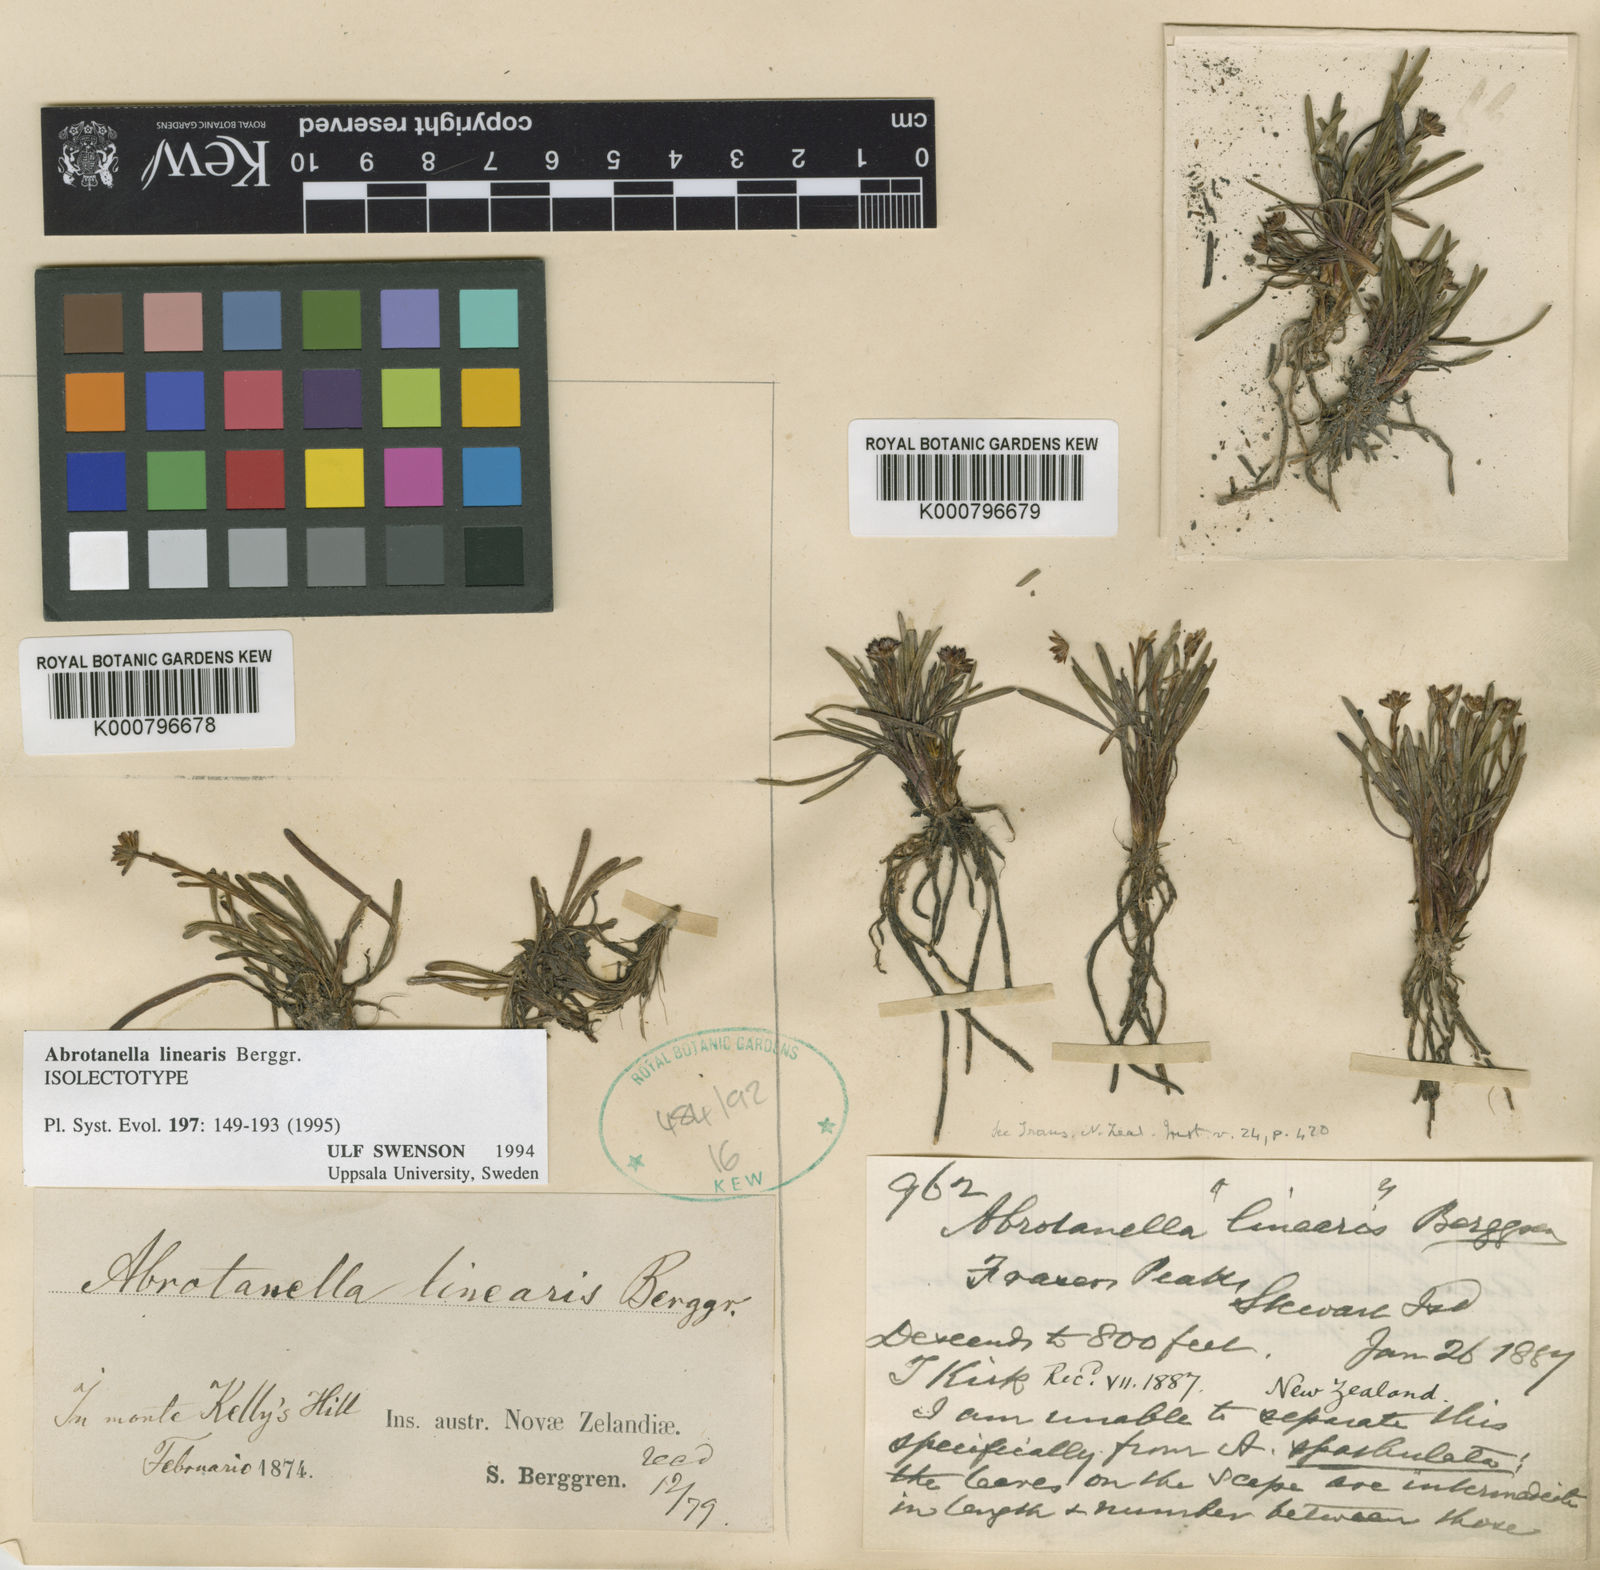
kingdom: Plantae
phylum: Tracheophyta
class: Magnoliopsida
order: Asterales
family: Asteraceae
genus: Abrotanella
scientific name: Abrotanella linearis
